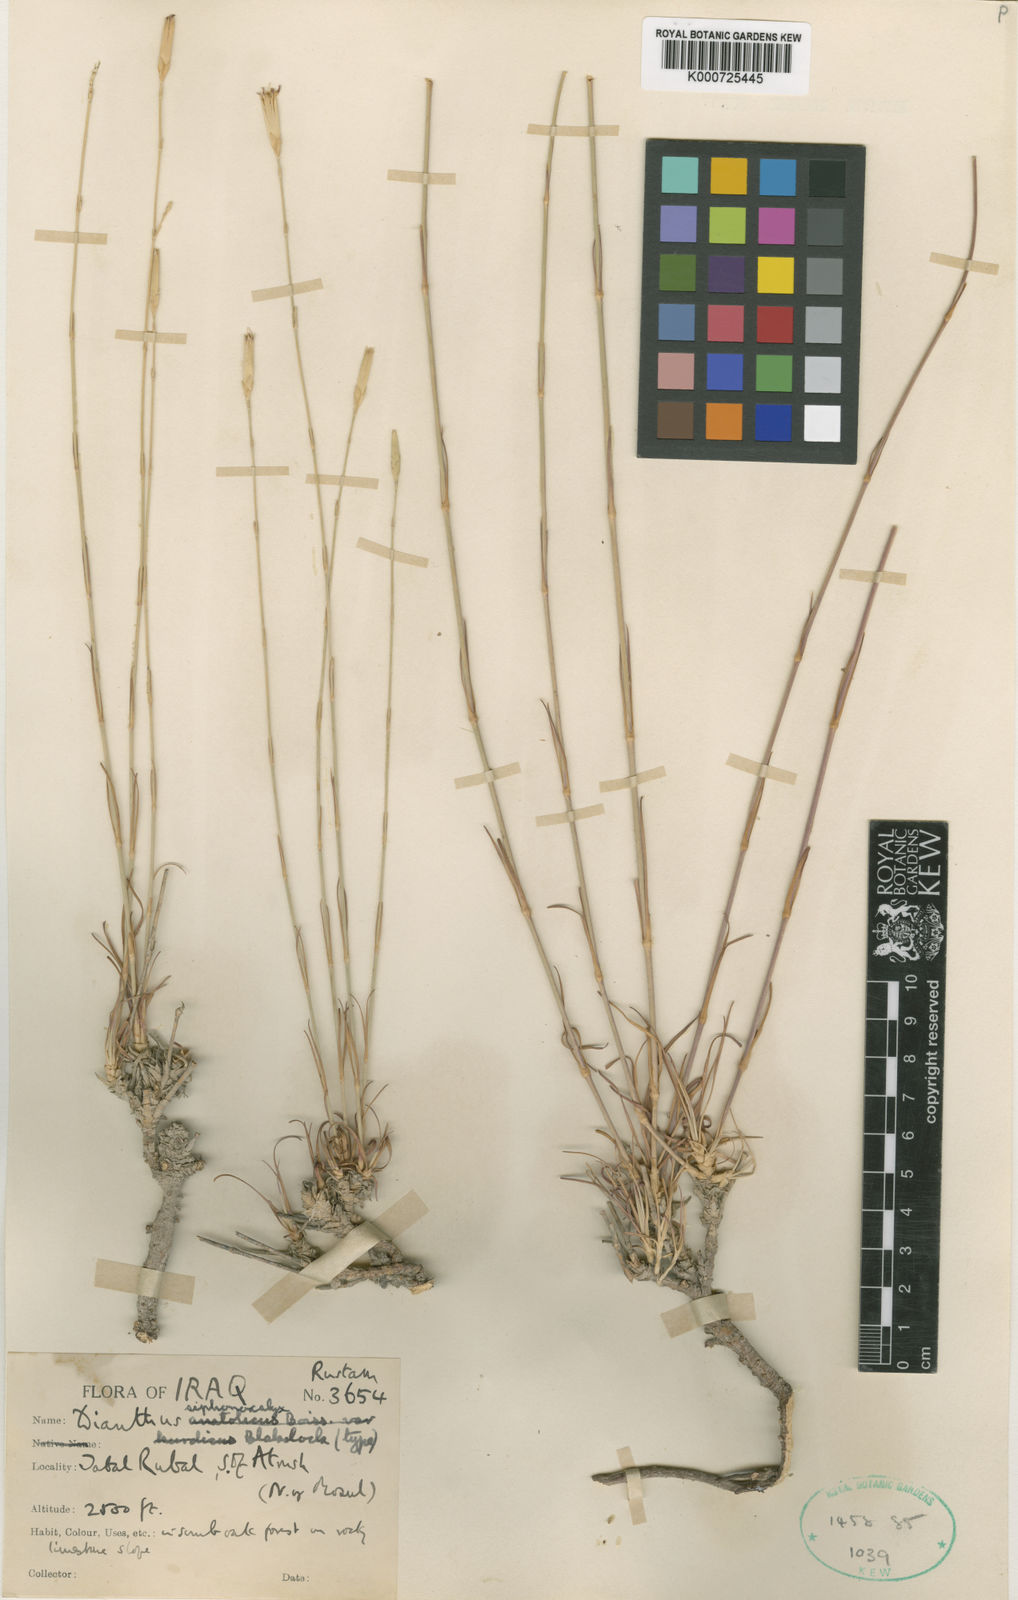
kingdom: Plantae
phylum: Tracheophyta
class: Magnoliopsida
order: Caryophyllales
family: Caryophyllaceae
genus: Dianthus
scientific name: Dianthus siphonocalyx
